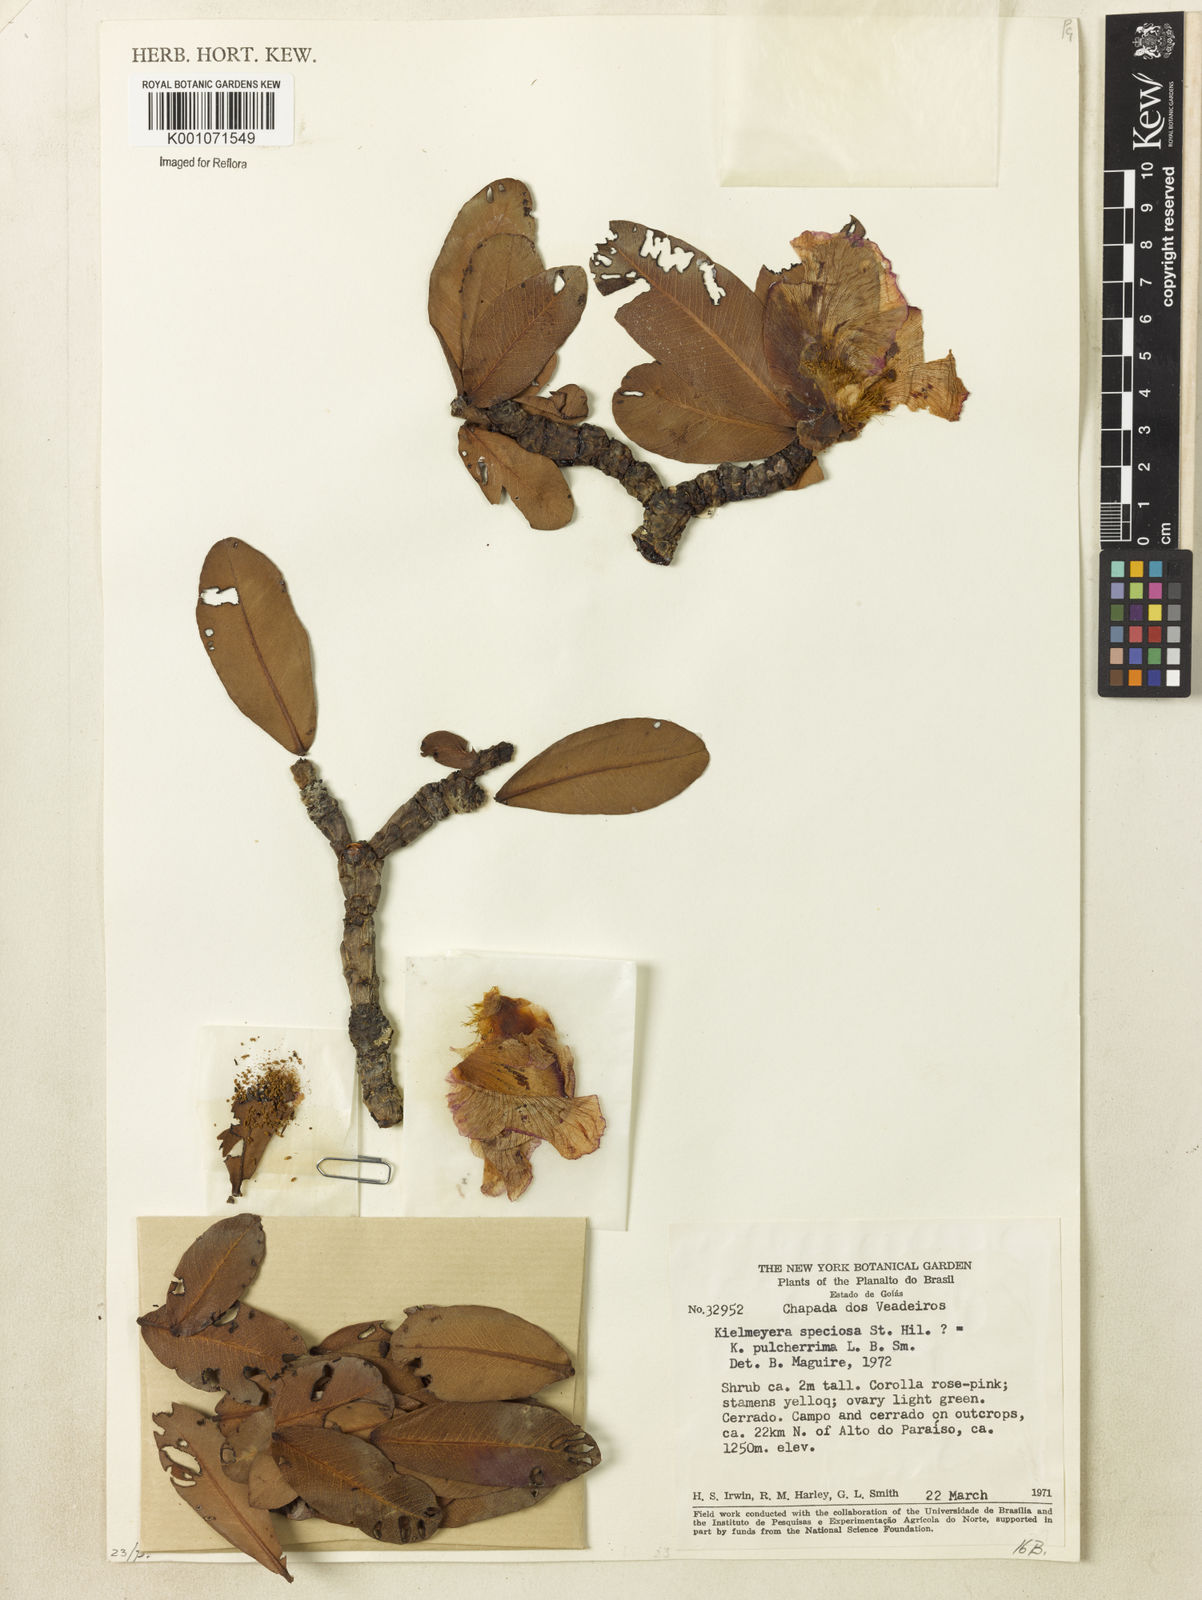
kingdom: Plantae
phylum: Tracheophyta
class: Magnoliopsida
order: Malpighiales
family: Calophyllaceae
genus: Kielmeyera
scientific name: Kielmeyera pulcherrima
